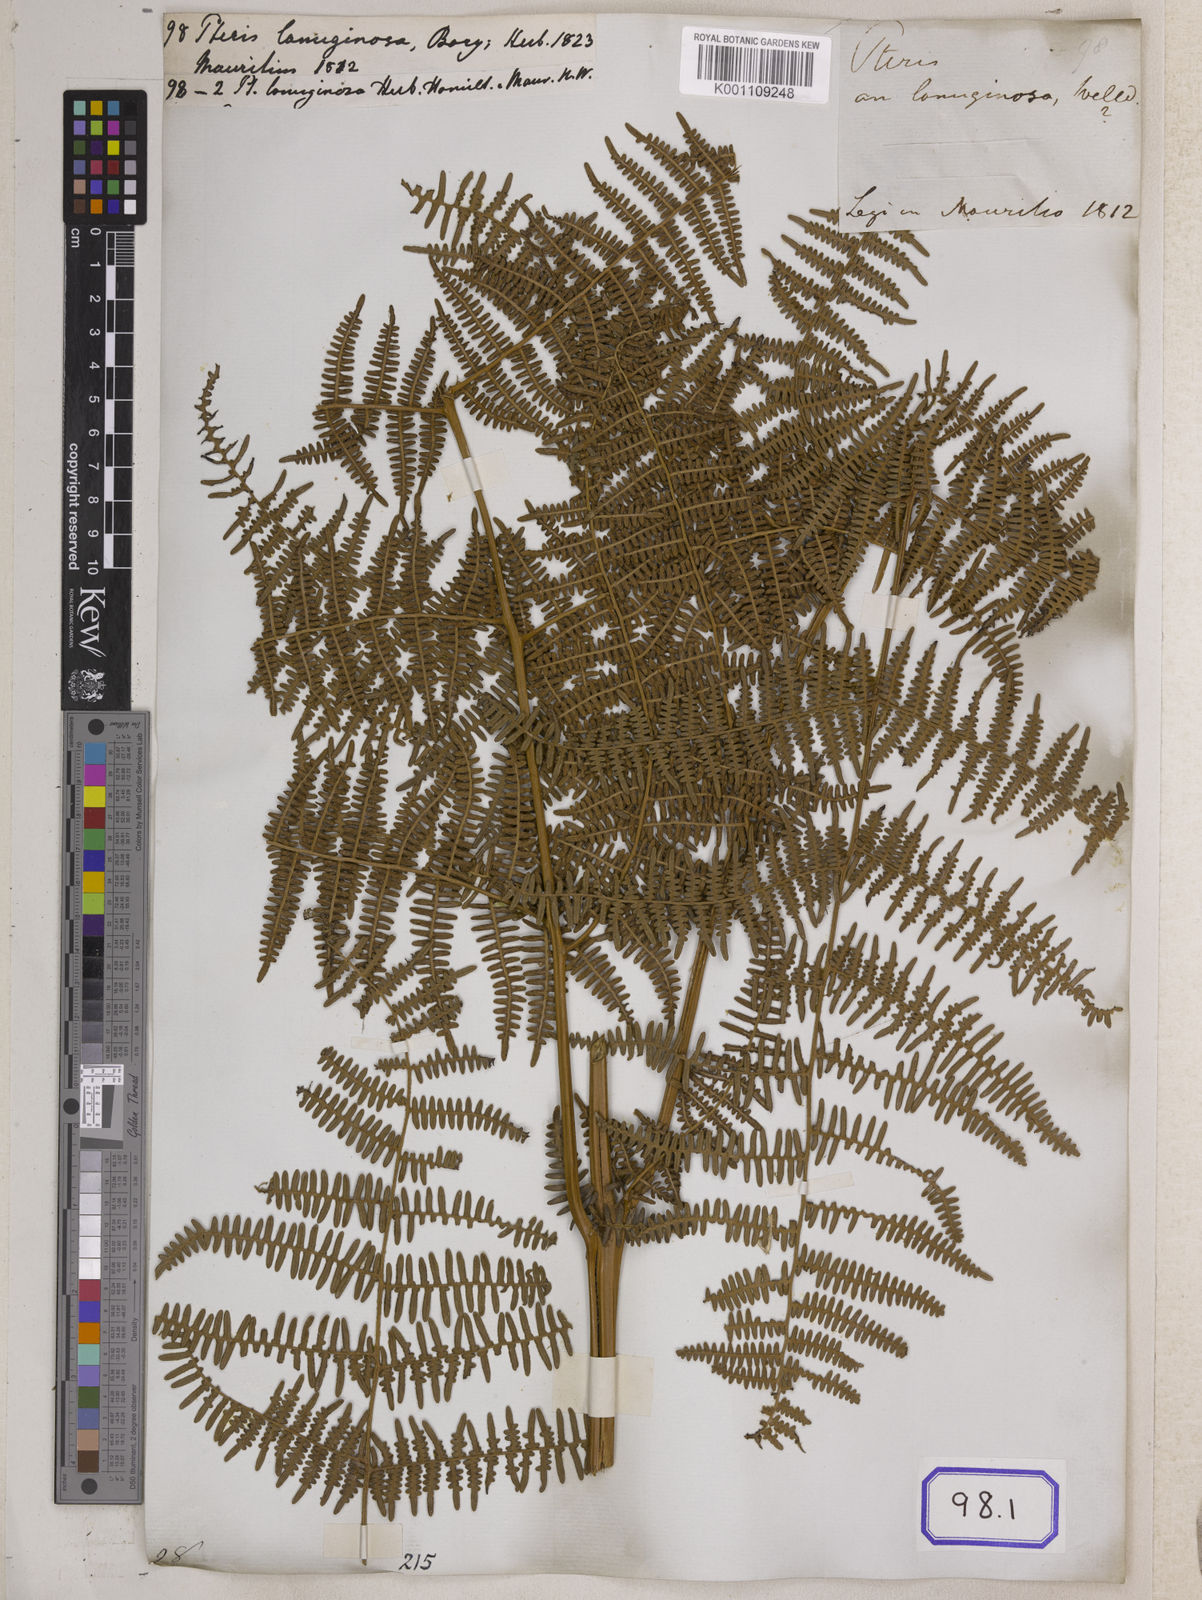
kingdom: Plantae
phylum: Tracheophyta
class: Polypodiopsida
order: Polypodiales
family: Pteridaceae
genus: Pteris
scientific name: Pteris
